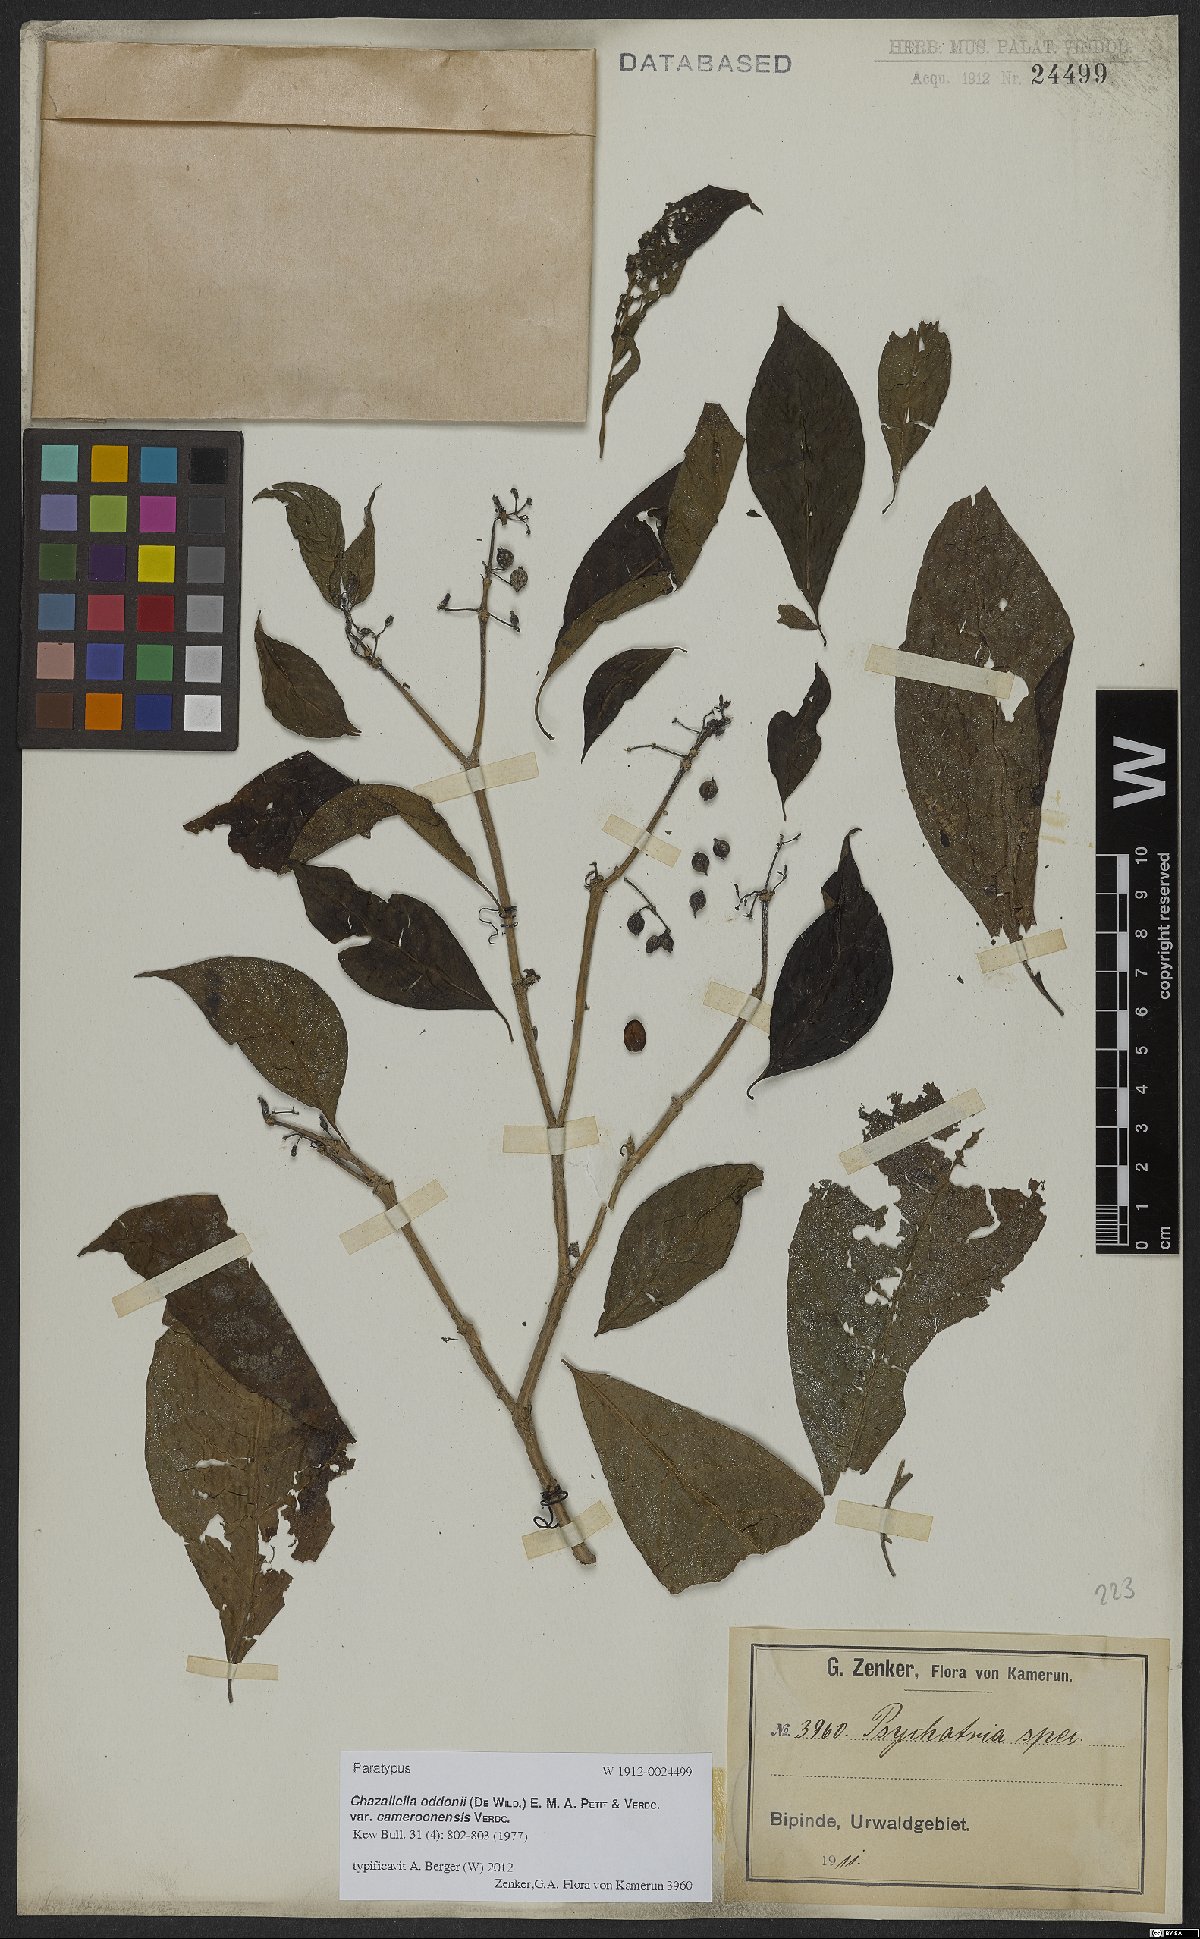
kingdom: Plantae
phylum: Tracheophyta
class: Magnoliopsida
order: Gentianales
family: Rubiaceae
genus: Eumachia
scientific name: Eumachia oddonii
